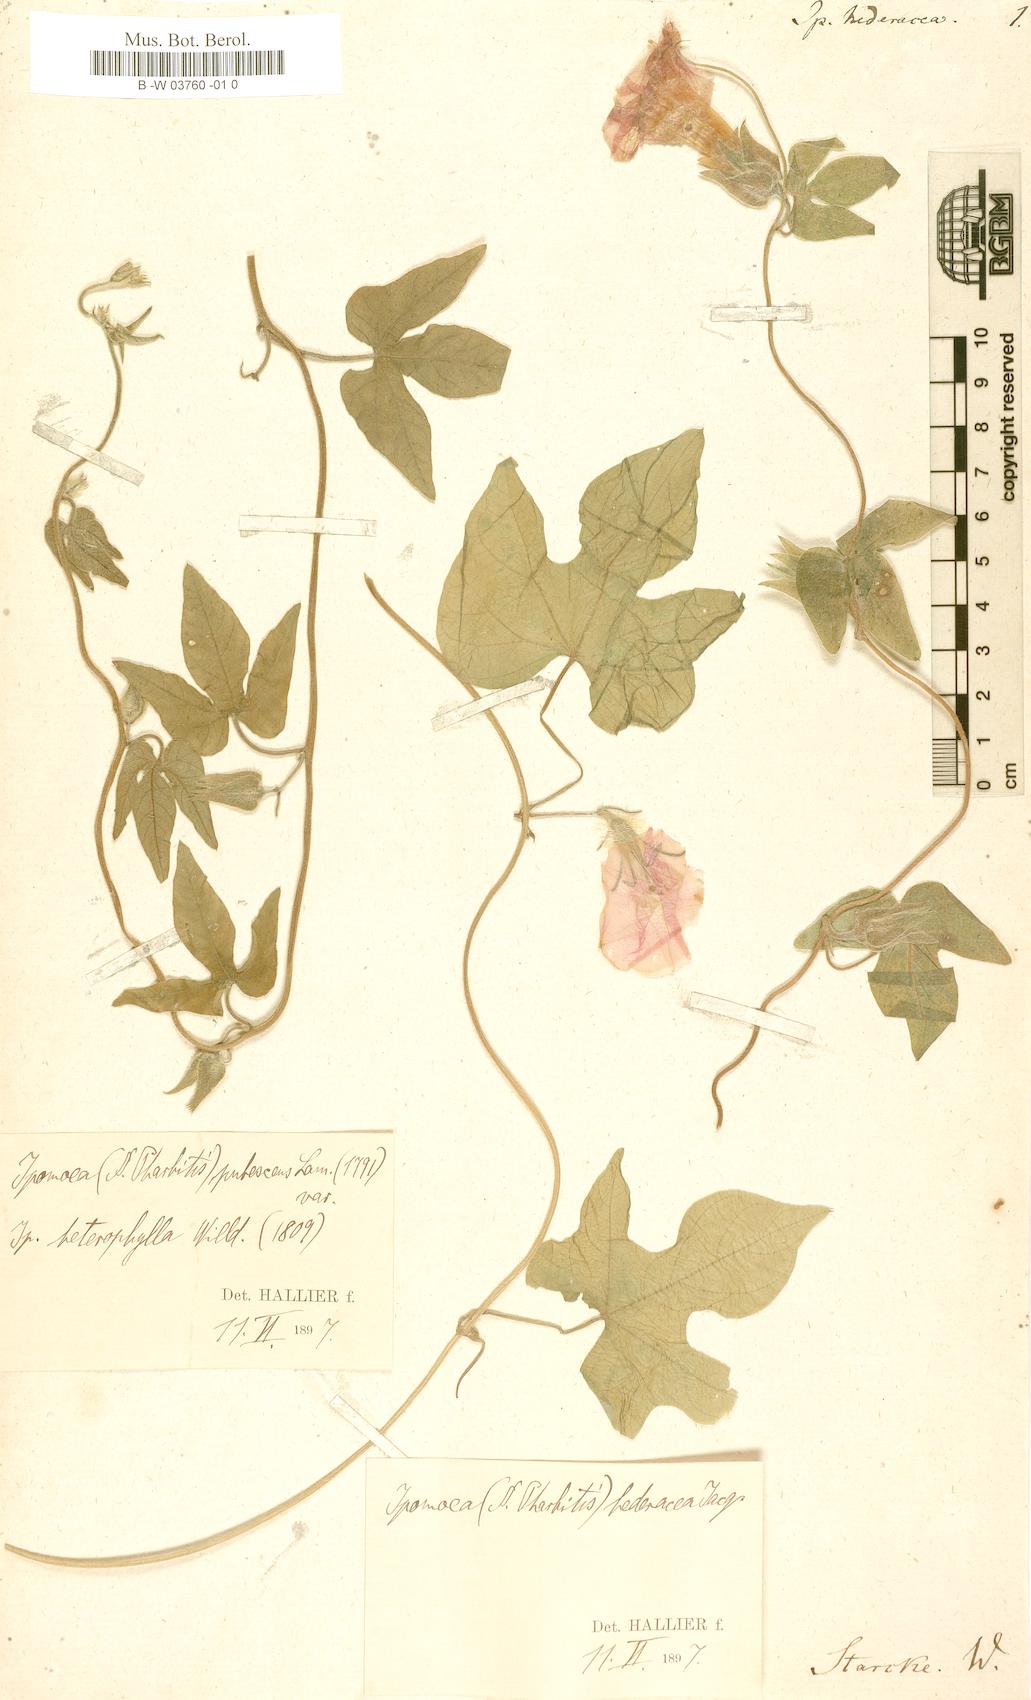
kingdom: Plantae
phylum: Tracheophyta
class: Magnoliopsida
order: Solanales
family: Convolvulaceae
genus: Ipomoea
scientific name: Ipomoea hederacea
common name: Ivy-leaved morning-glory
